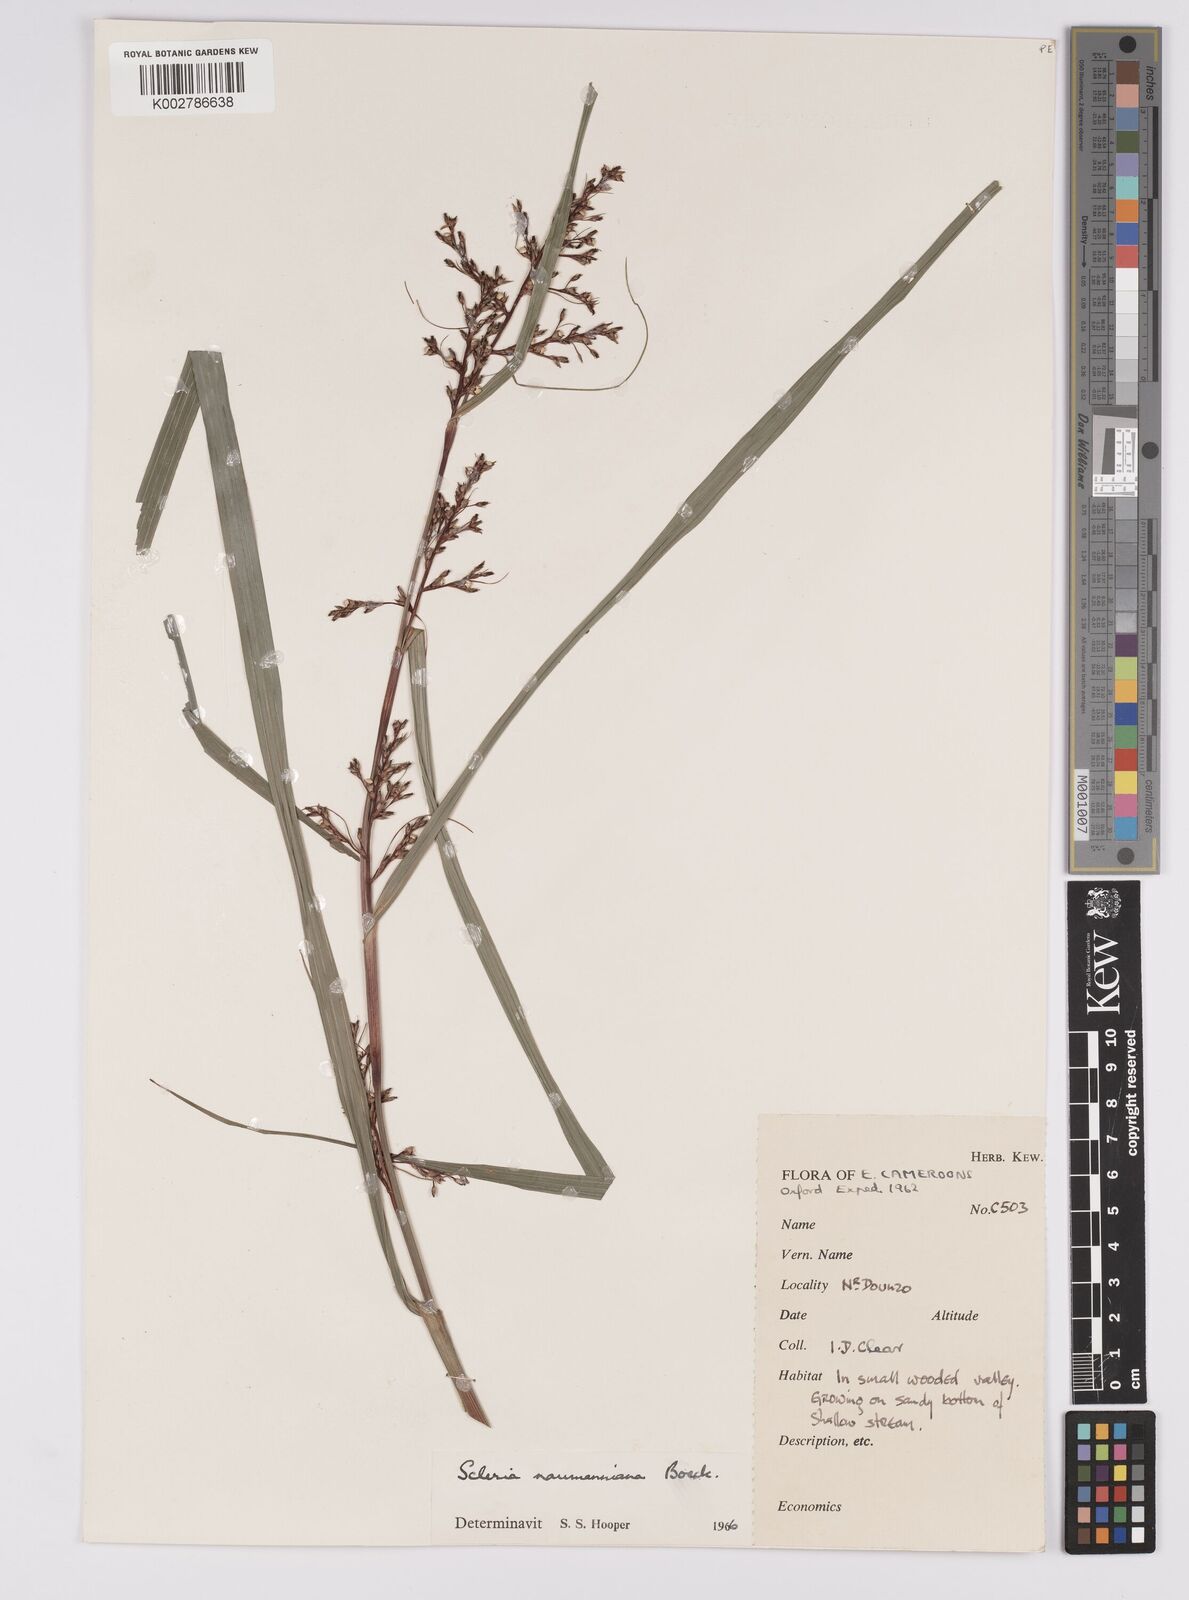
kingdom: Plantae
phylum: Tracheophyta
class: Liliopsida
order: Poales
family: Cyperaceae
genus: Scleria
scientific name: Scleria naumanniana
